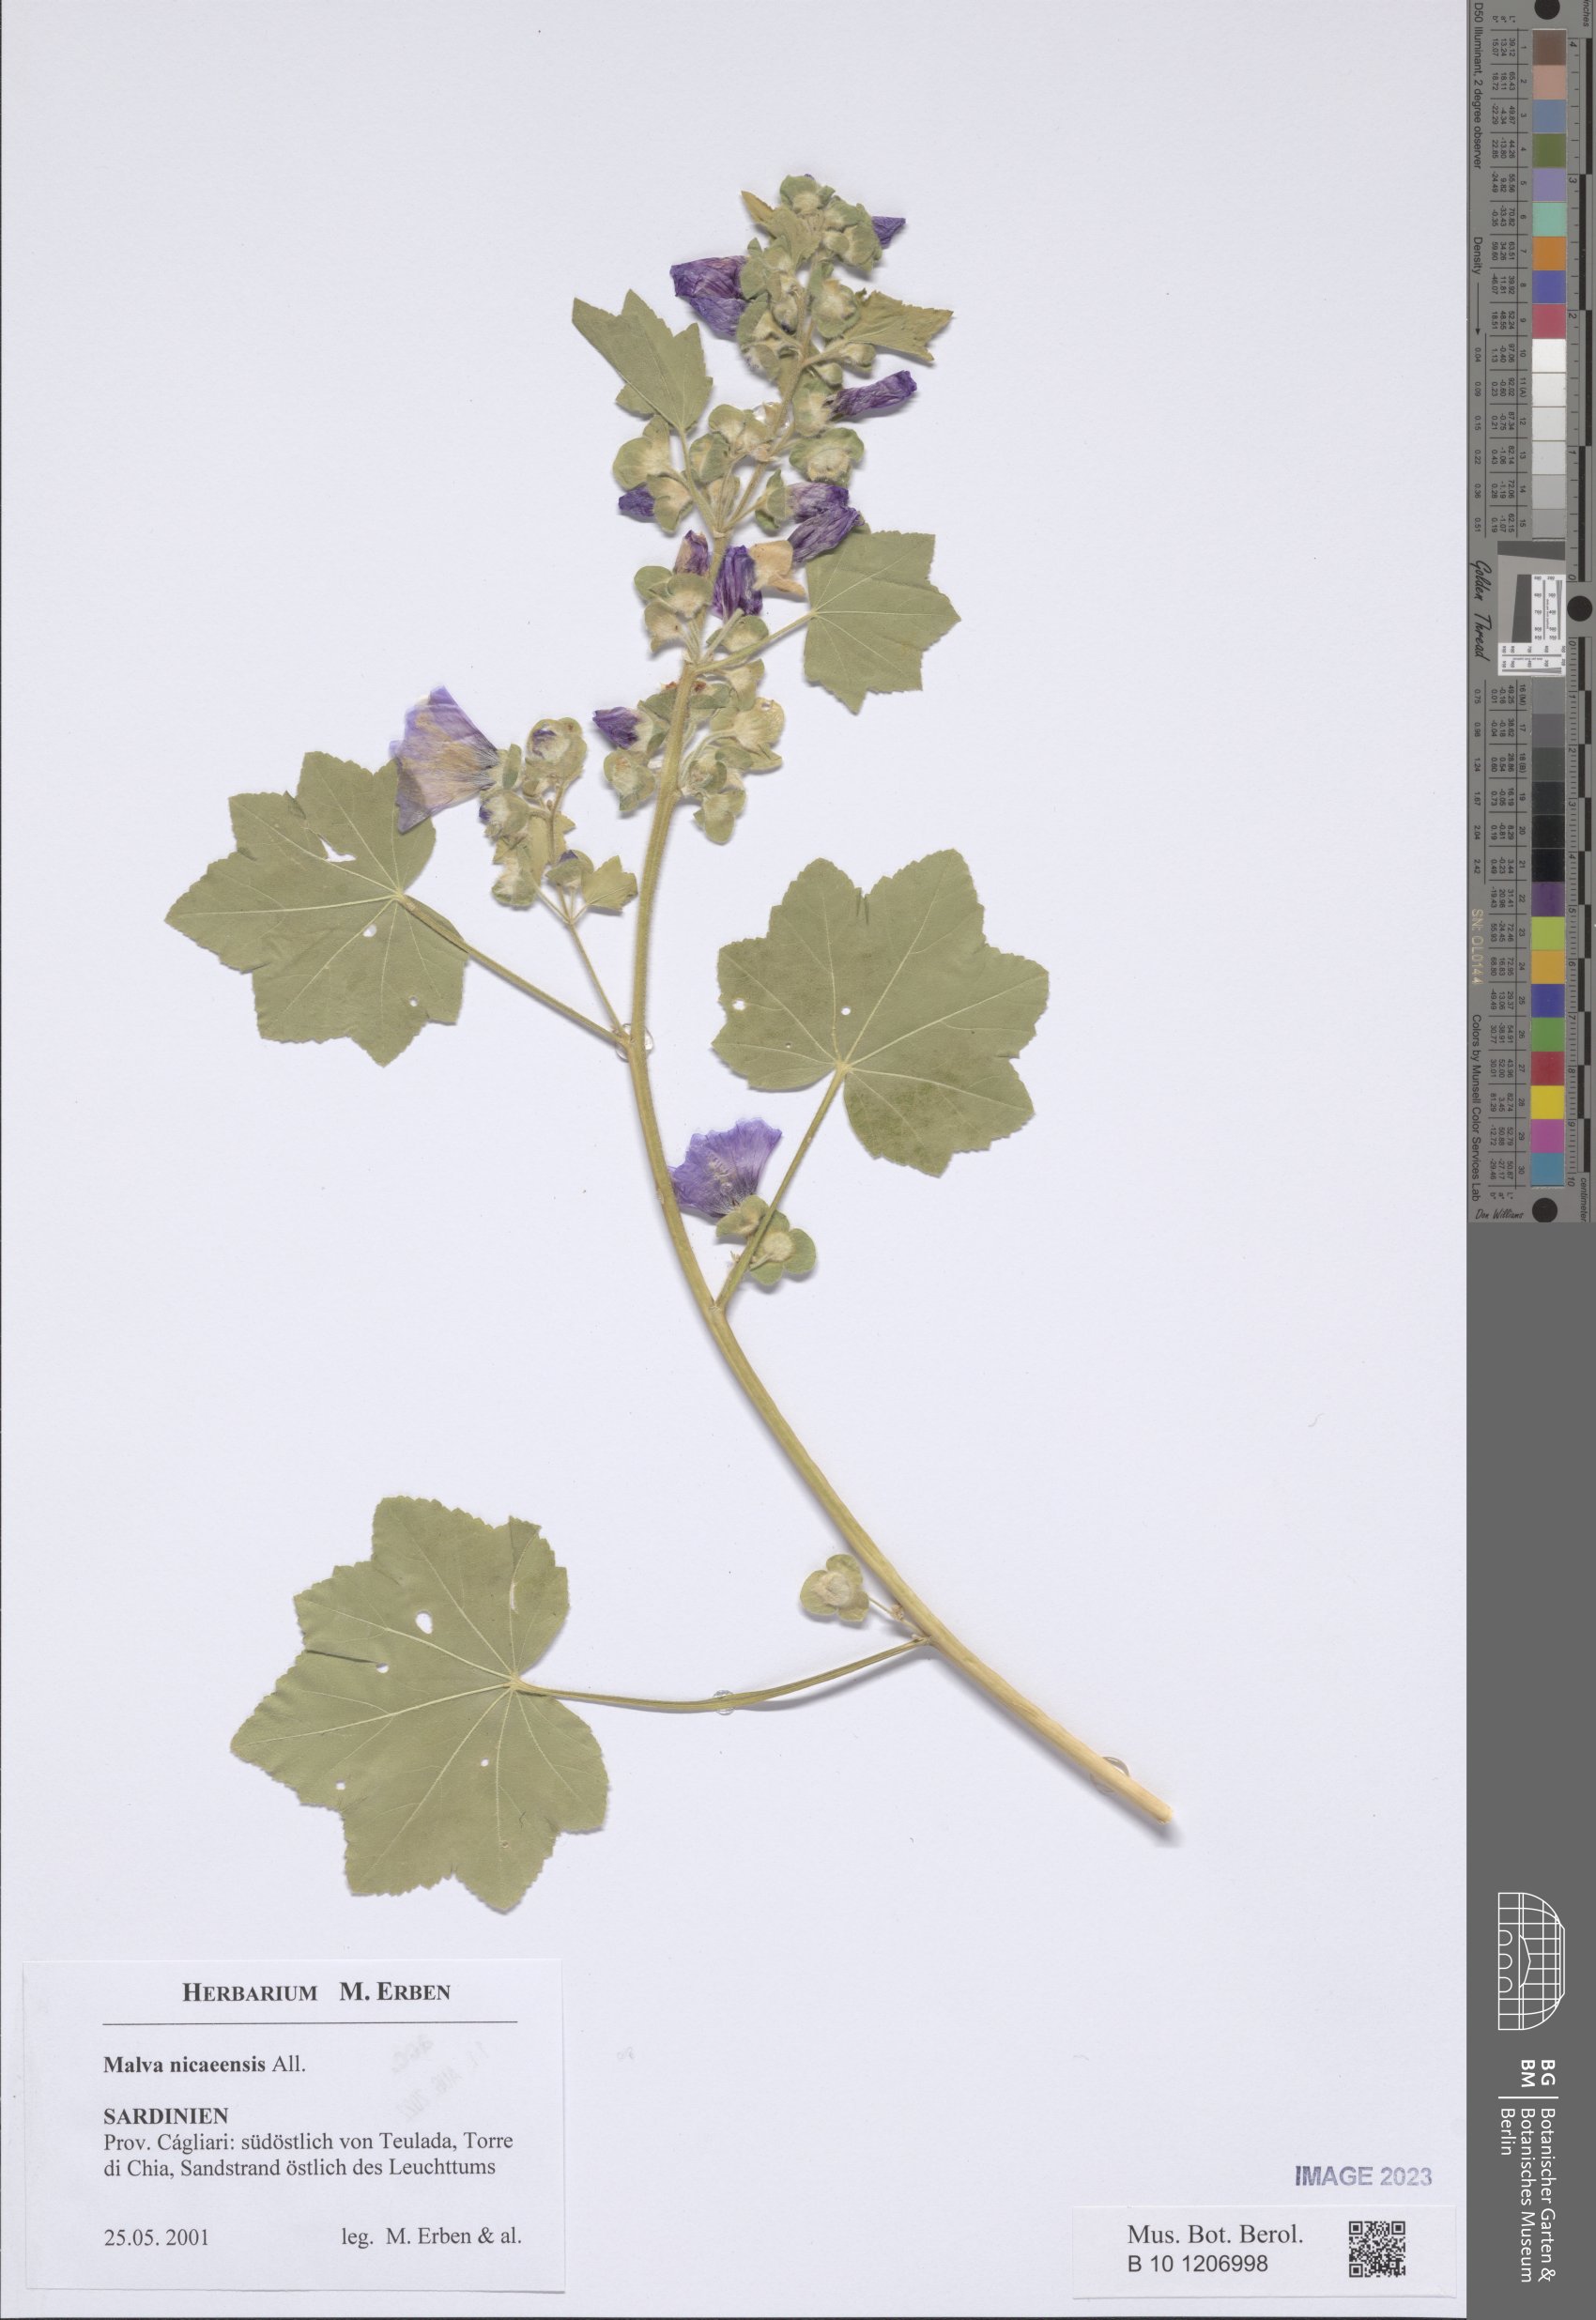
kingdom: Plantae
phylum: Tracheophyta
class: Magnoliopsida
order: Malvales
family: Malvaceae
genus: Malva
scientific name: Malva nicaeensis
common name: French mallow
